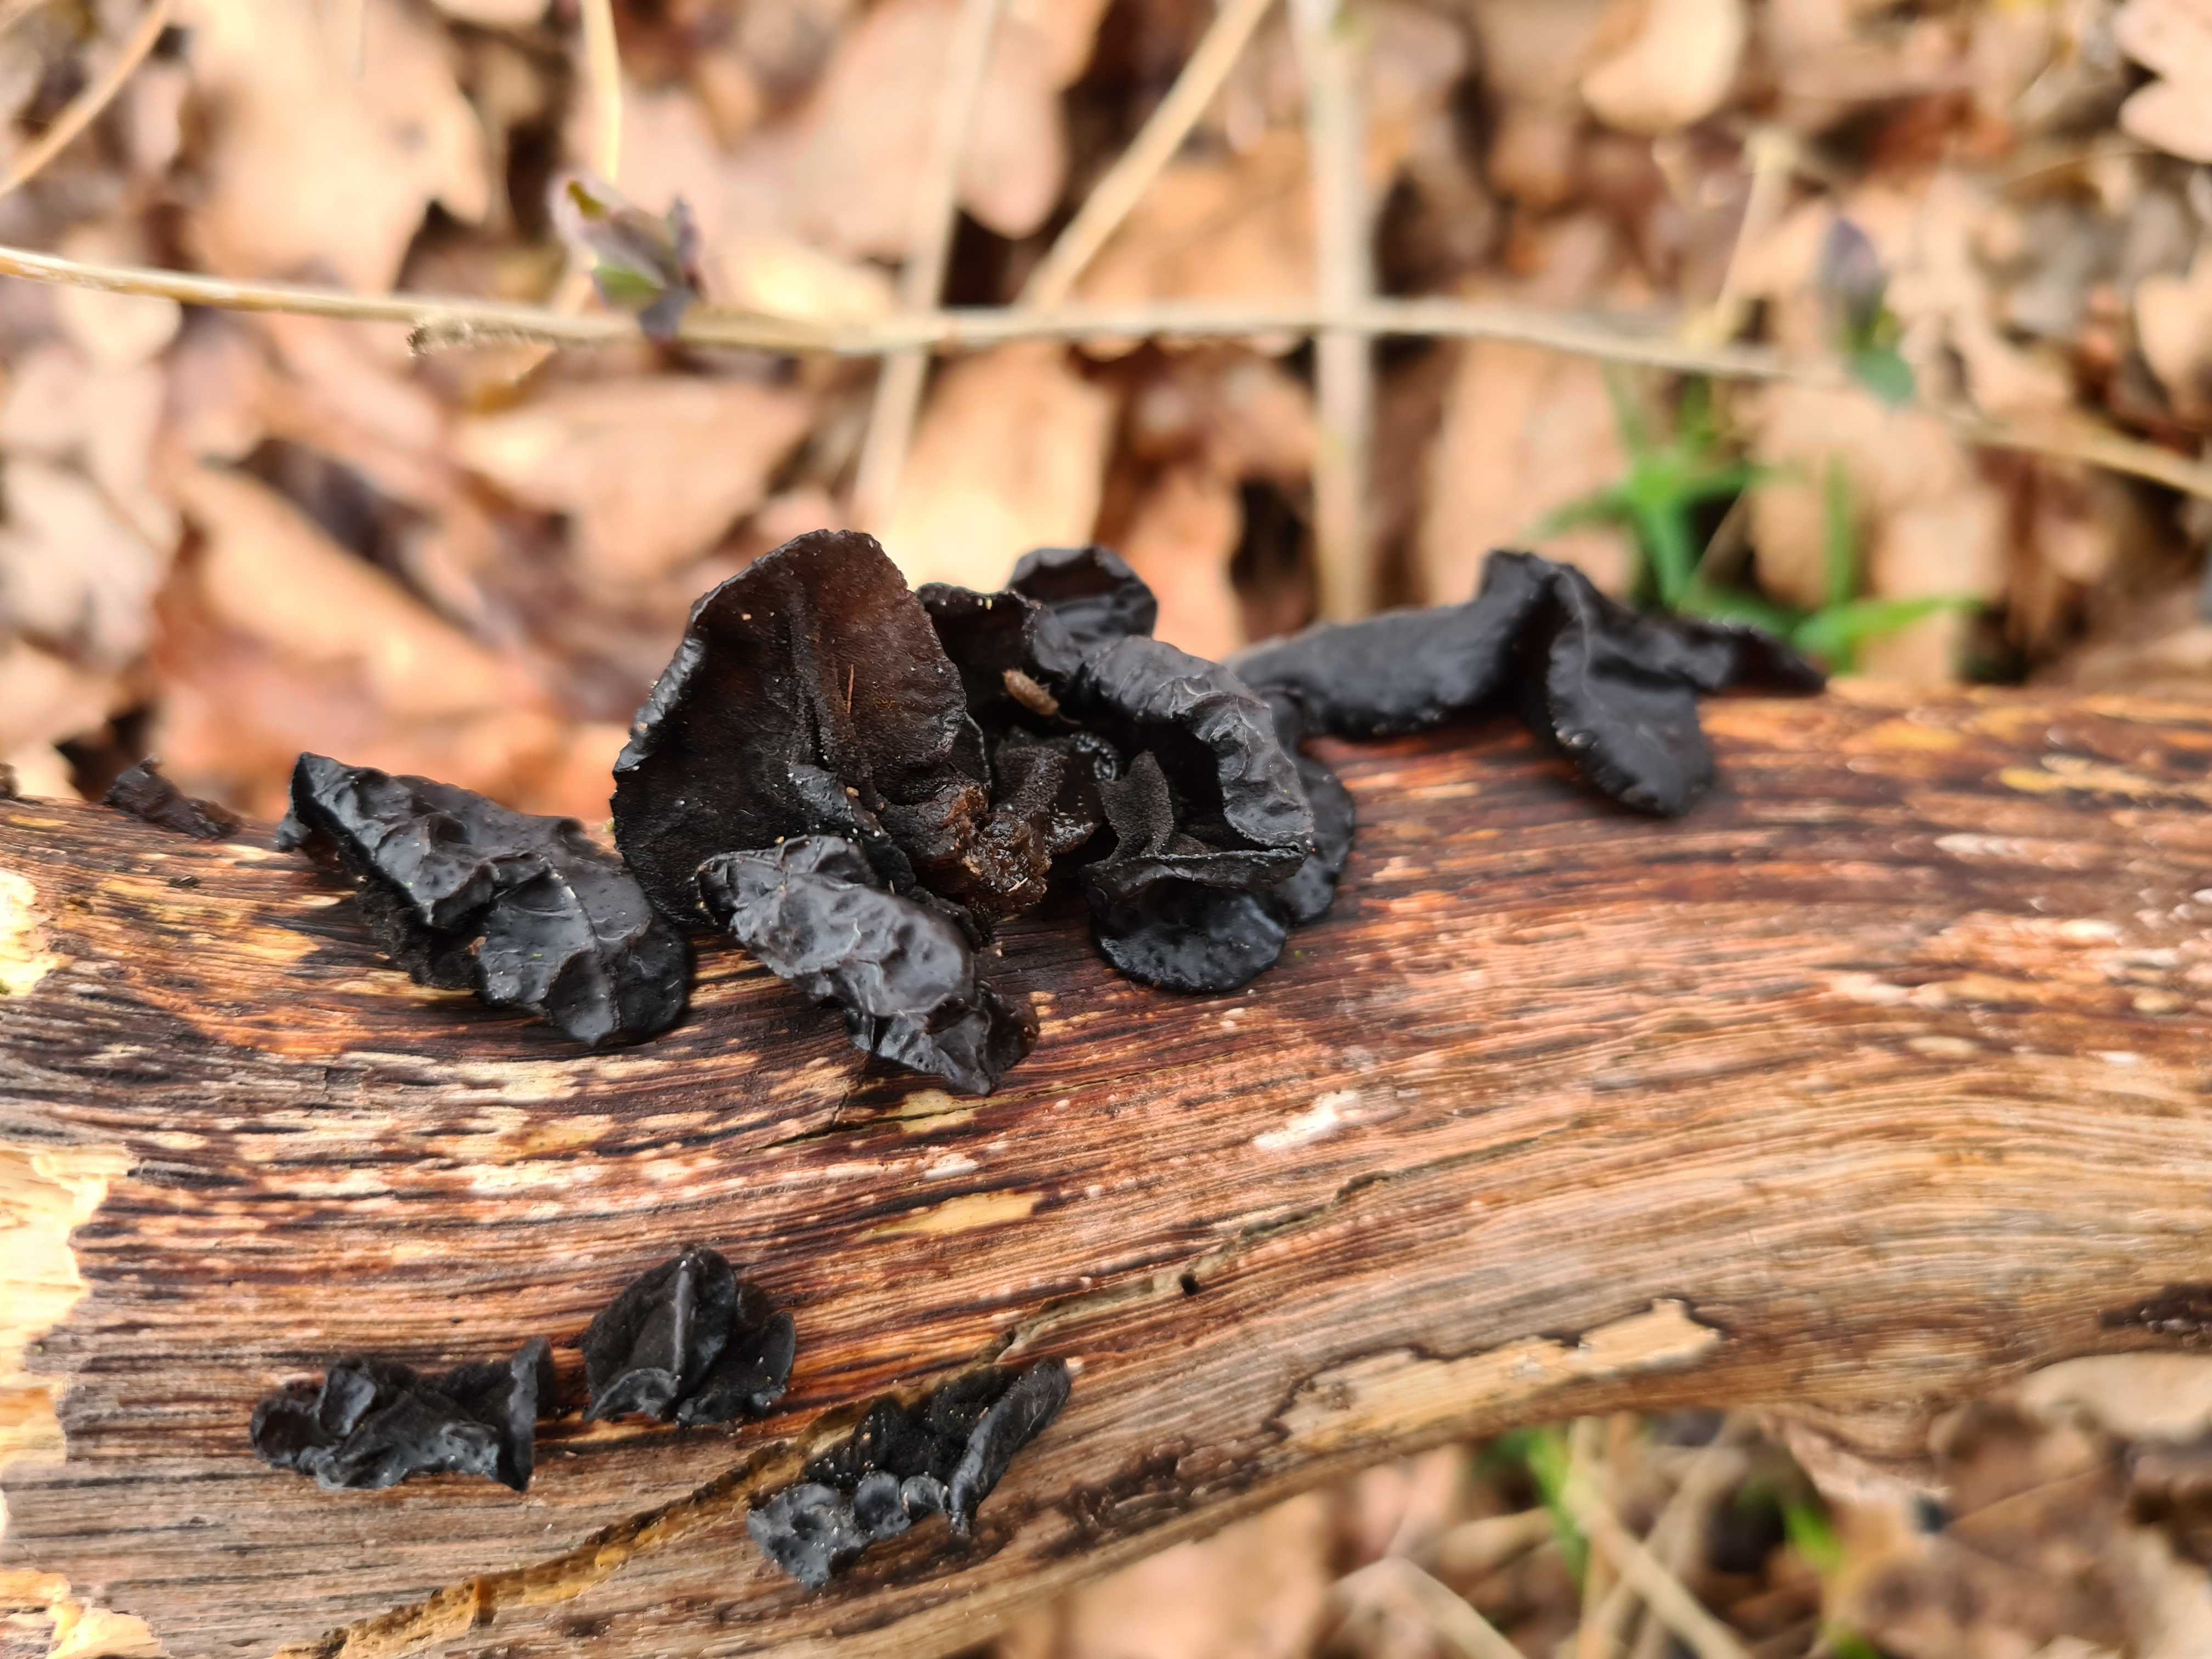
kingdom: Fungi
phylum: Basidiomycota
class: Agaricomycetes
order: Auriculariales
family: Auriculariaceae
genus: Exidia
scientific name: Exidia glandulosa
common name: ege-bævretop
